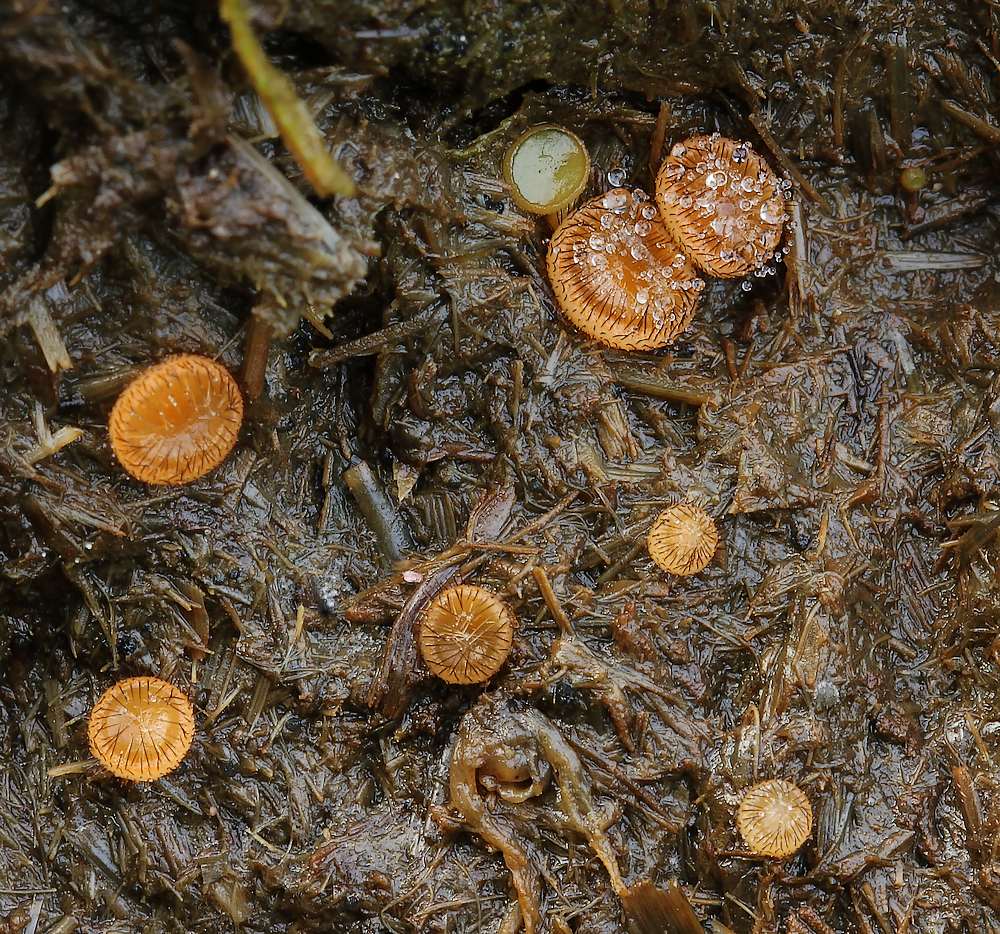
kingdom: Fungi
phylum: Ascomycota
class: Pezizomycetes
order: Pezizales
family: Pyronemataceae
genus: Cheilymenia
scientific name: Cheilymenia
